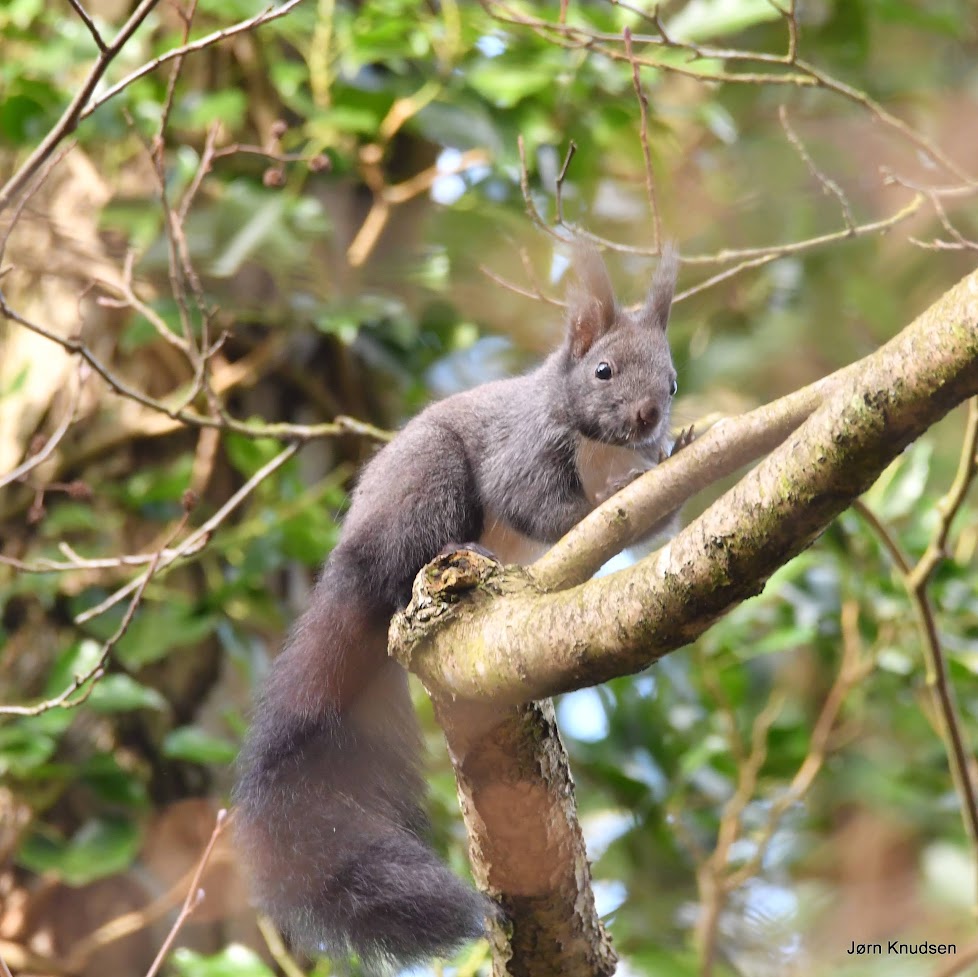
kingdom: Animalia
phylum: Chordata
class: Mammalia
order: Rodentia
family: Sciuridae
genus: Sciurus
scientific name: Sciurus vulgaris
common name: Egern
